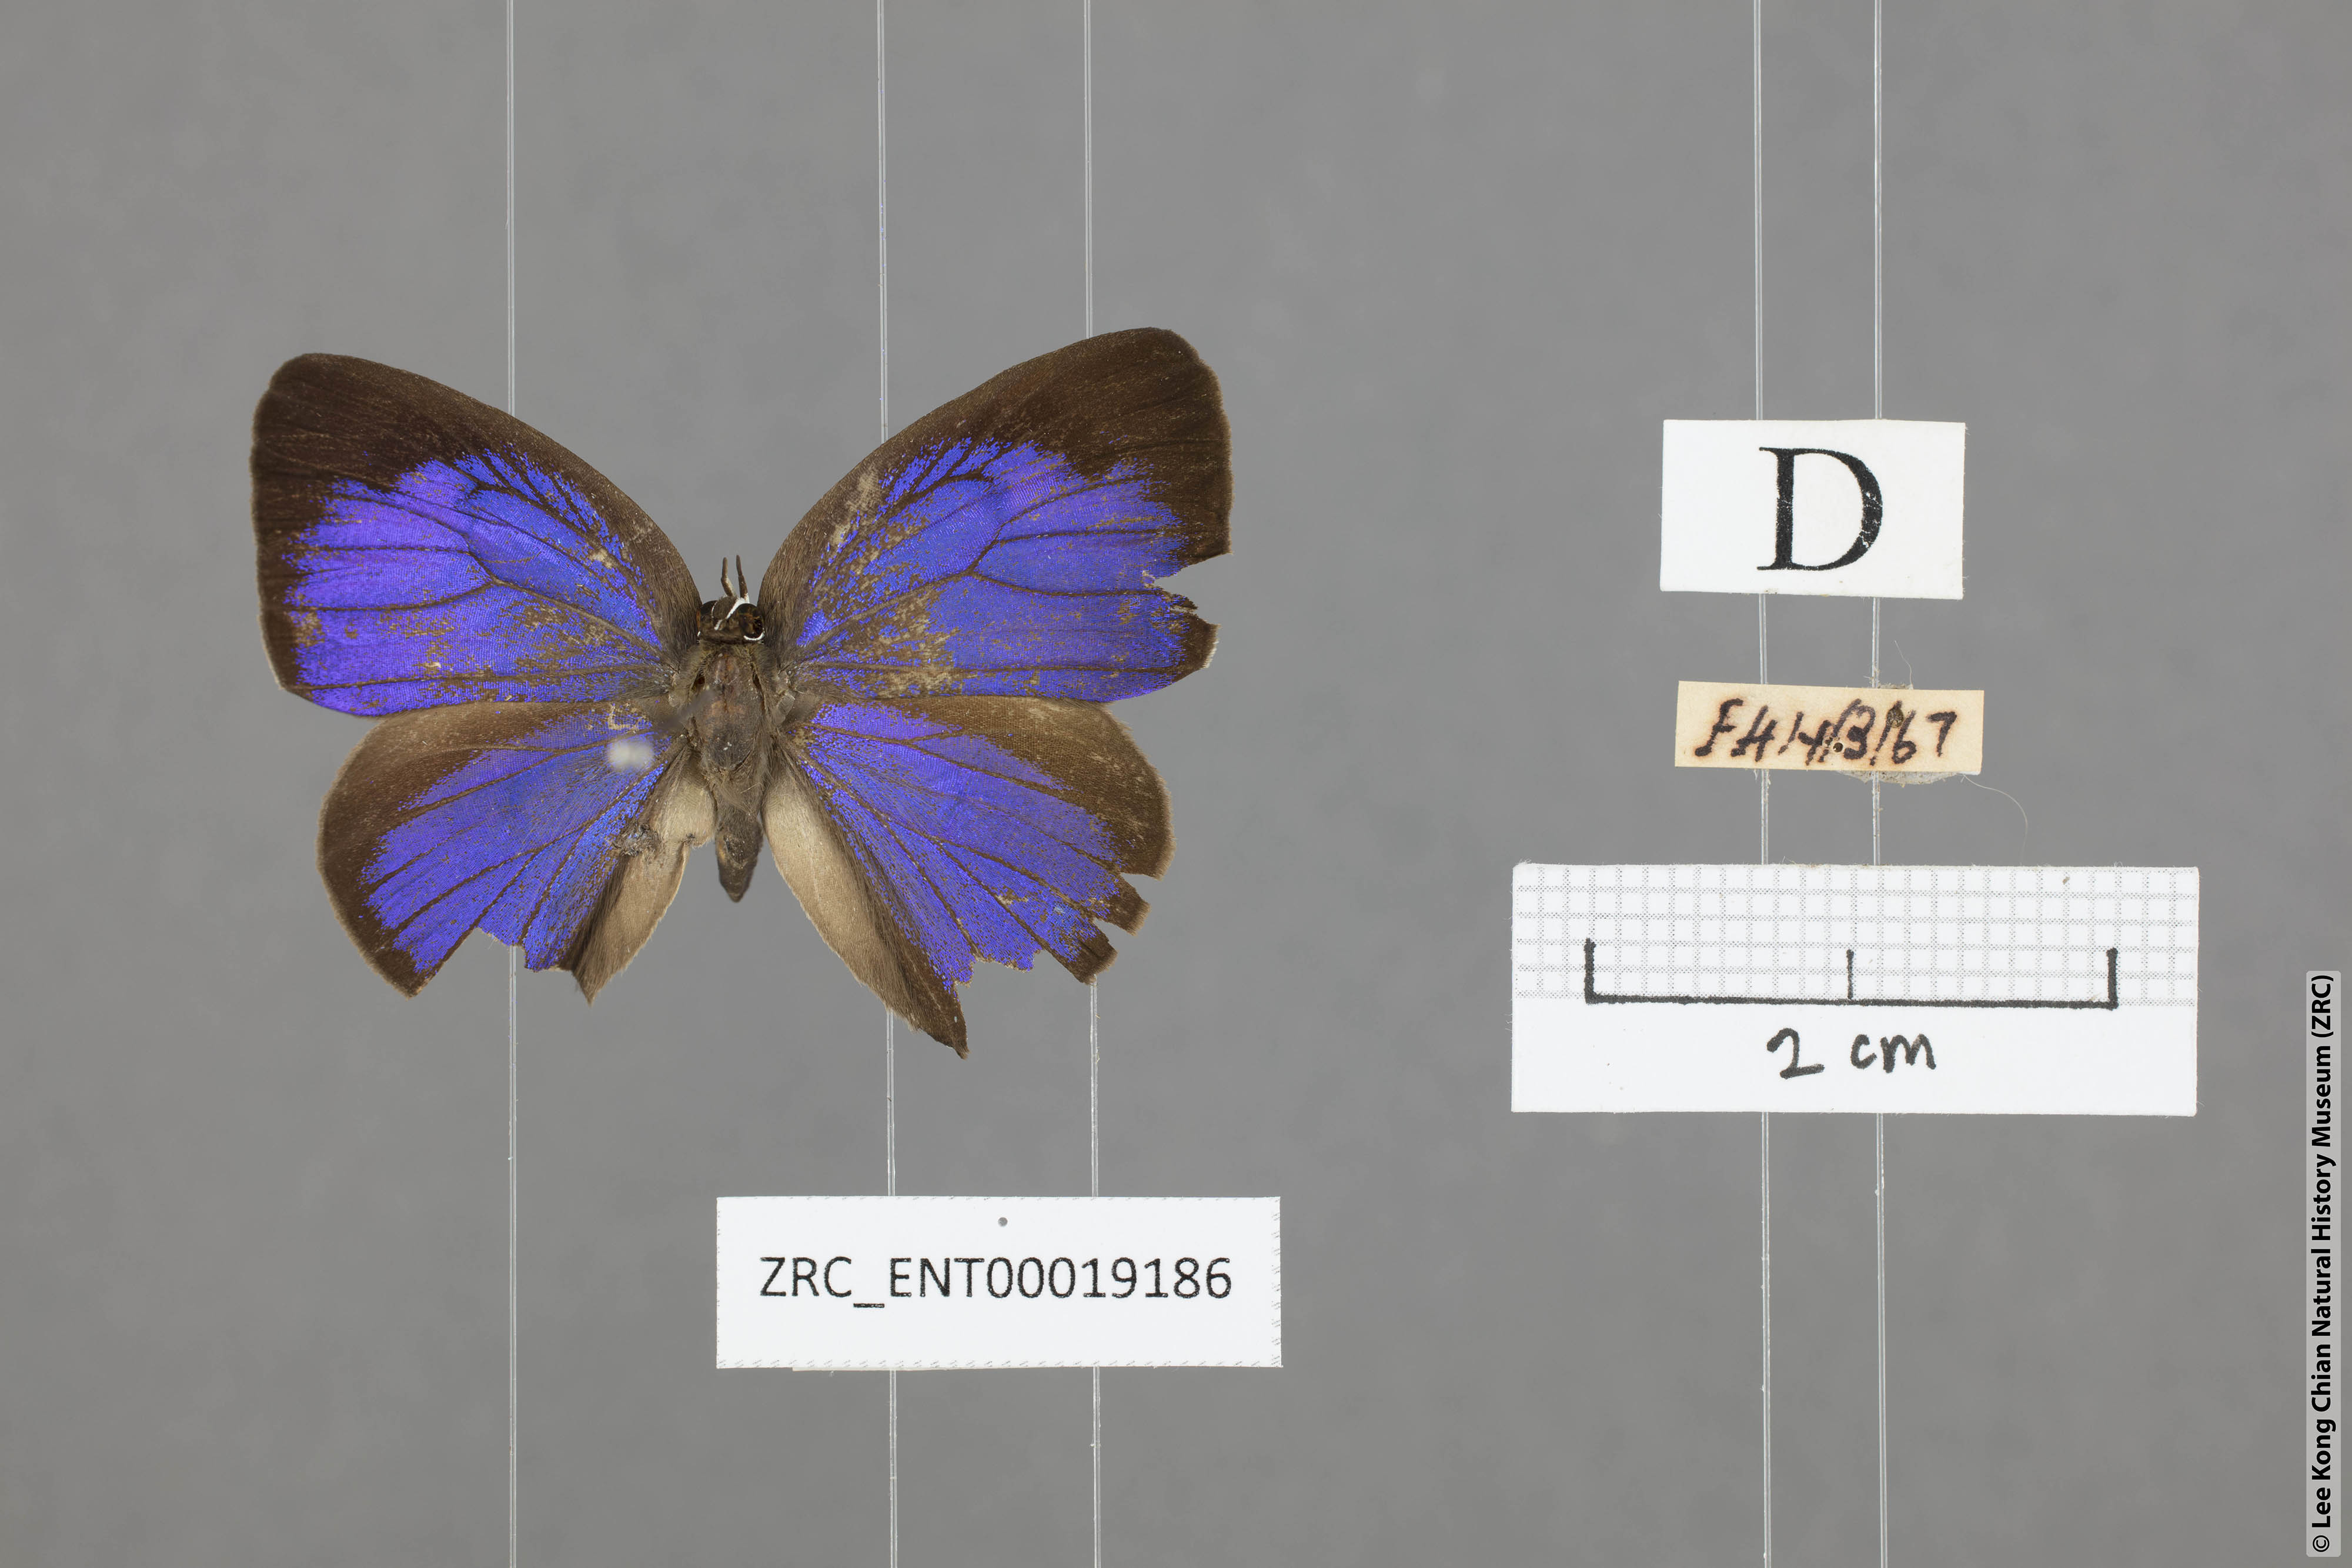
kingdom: Animalia
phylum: Arthropoda
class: Insecta
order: Lepidoptera
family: Lycaenidae
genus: Arhopala
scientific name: Arhopala ariana
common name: Pinkish-washed oakblue
